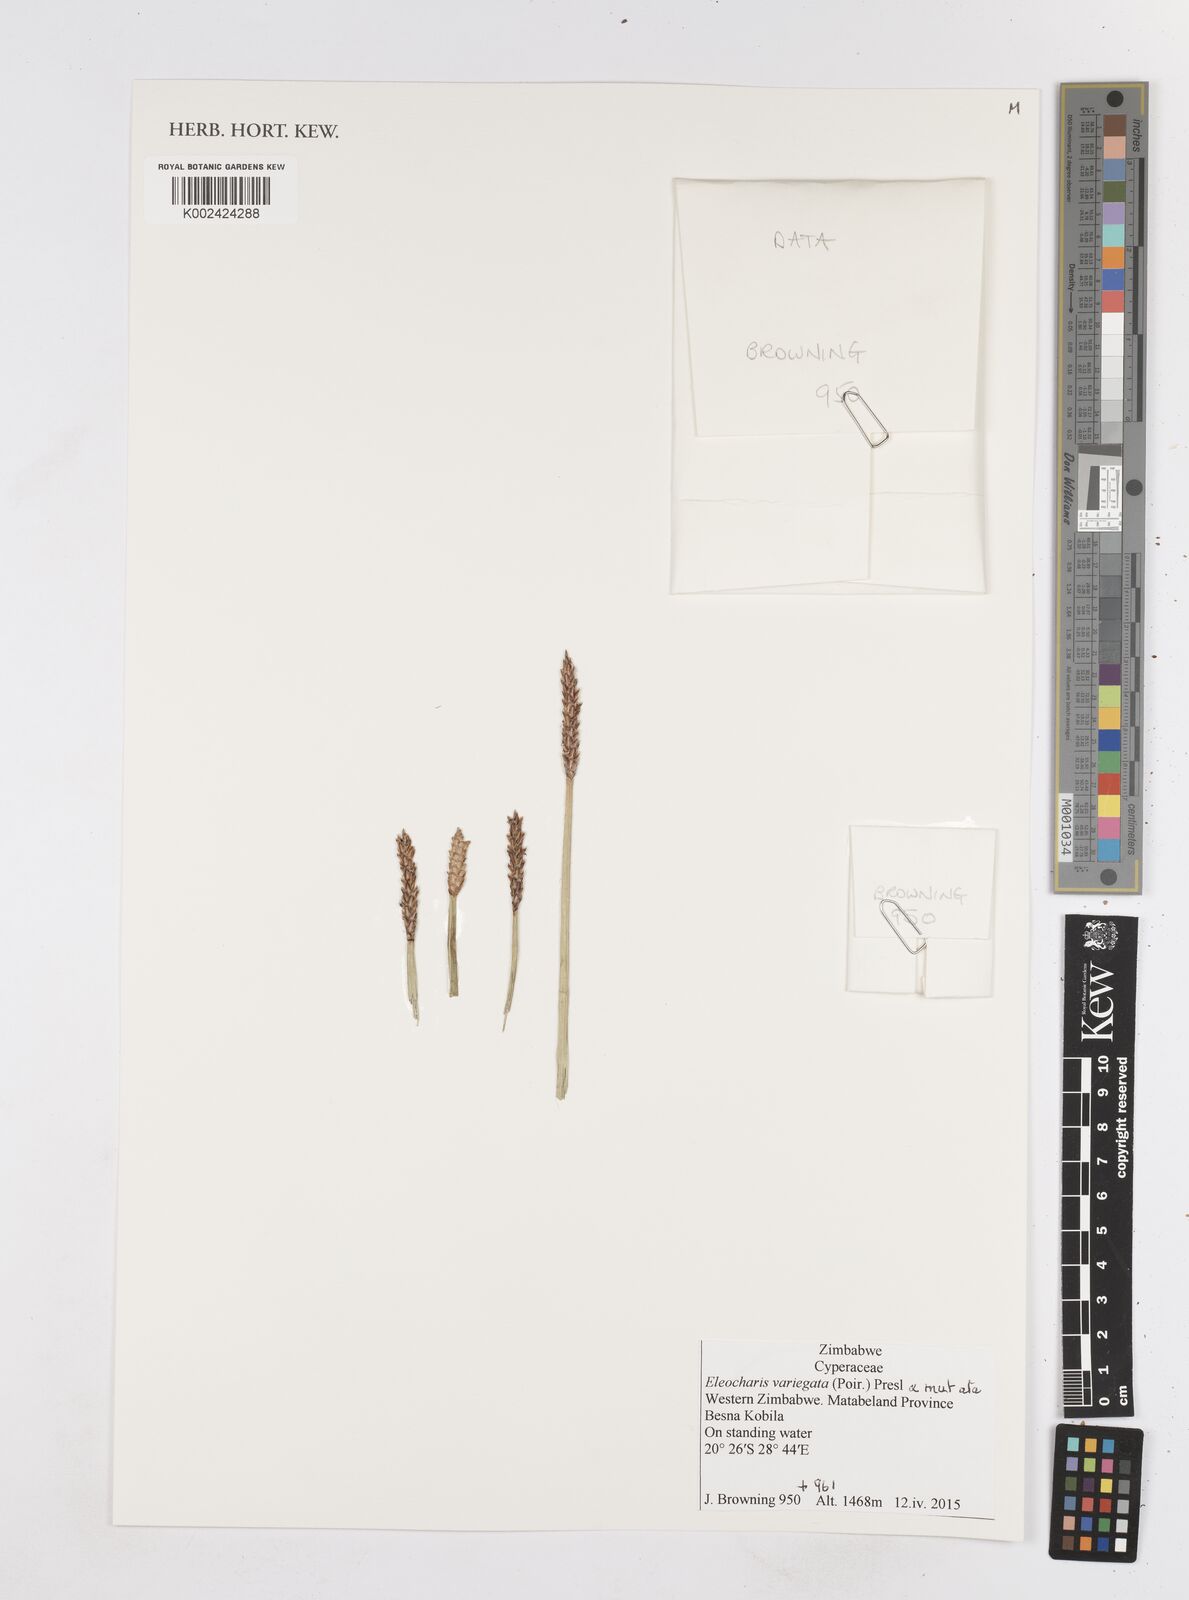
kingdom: Plantae
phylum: Tracheophyta
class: Liliopsida
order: Poales
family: Cyperaceae
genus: Eleocharis
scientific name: Eleocharis variegata
